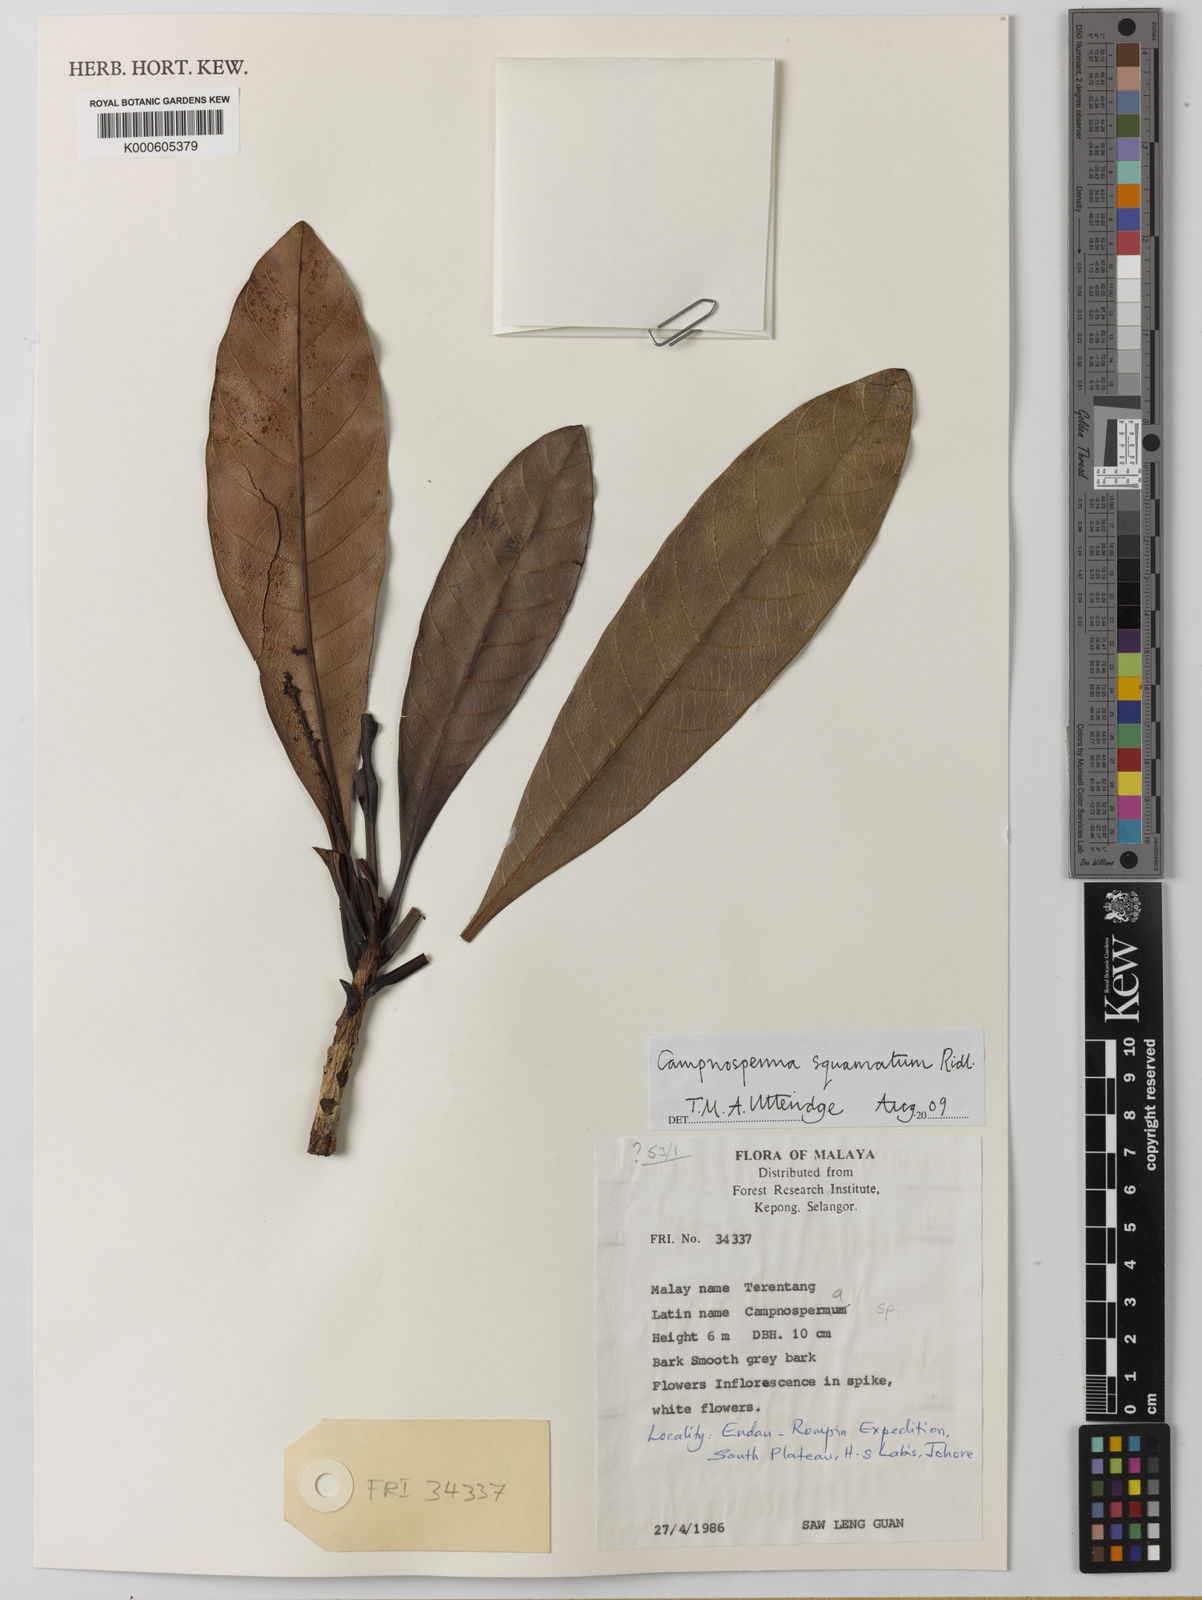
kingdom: Plantae
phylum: Tracheophyta
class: Magnoliopsida
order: Sapindales
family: Anacardiaceae
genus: Campnosperma
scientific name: Campnosperma squamatum
